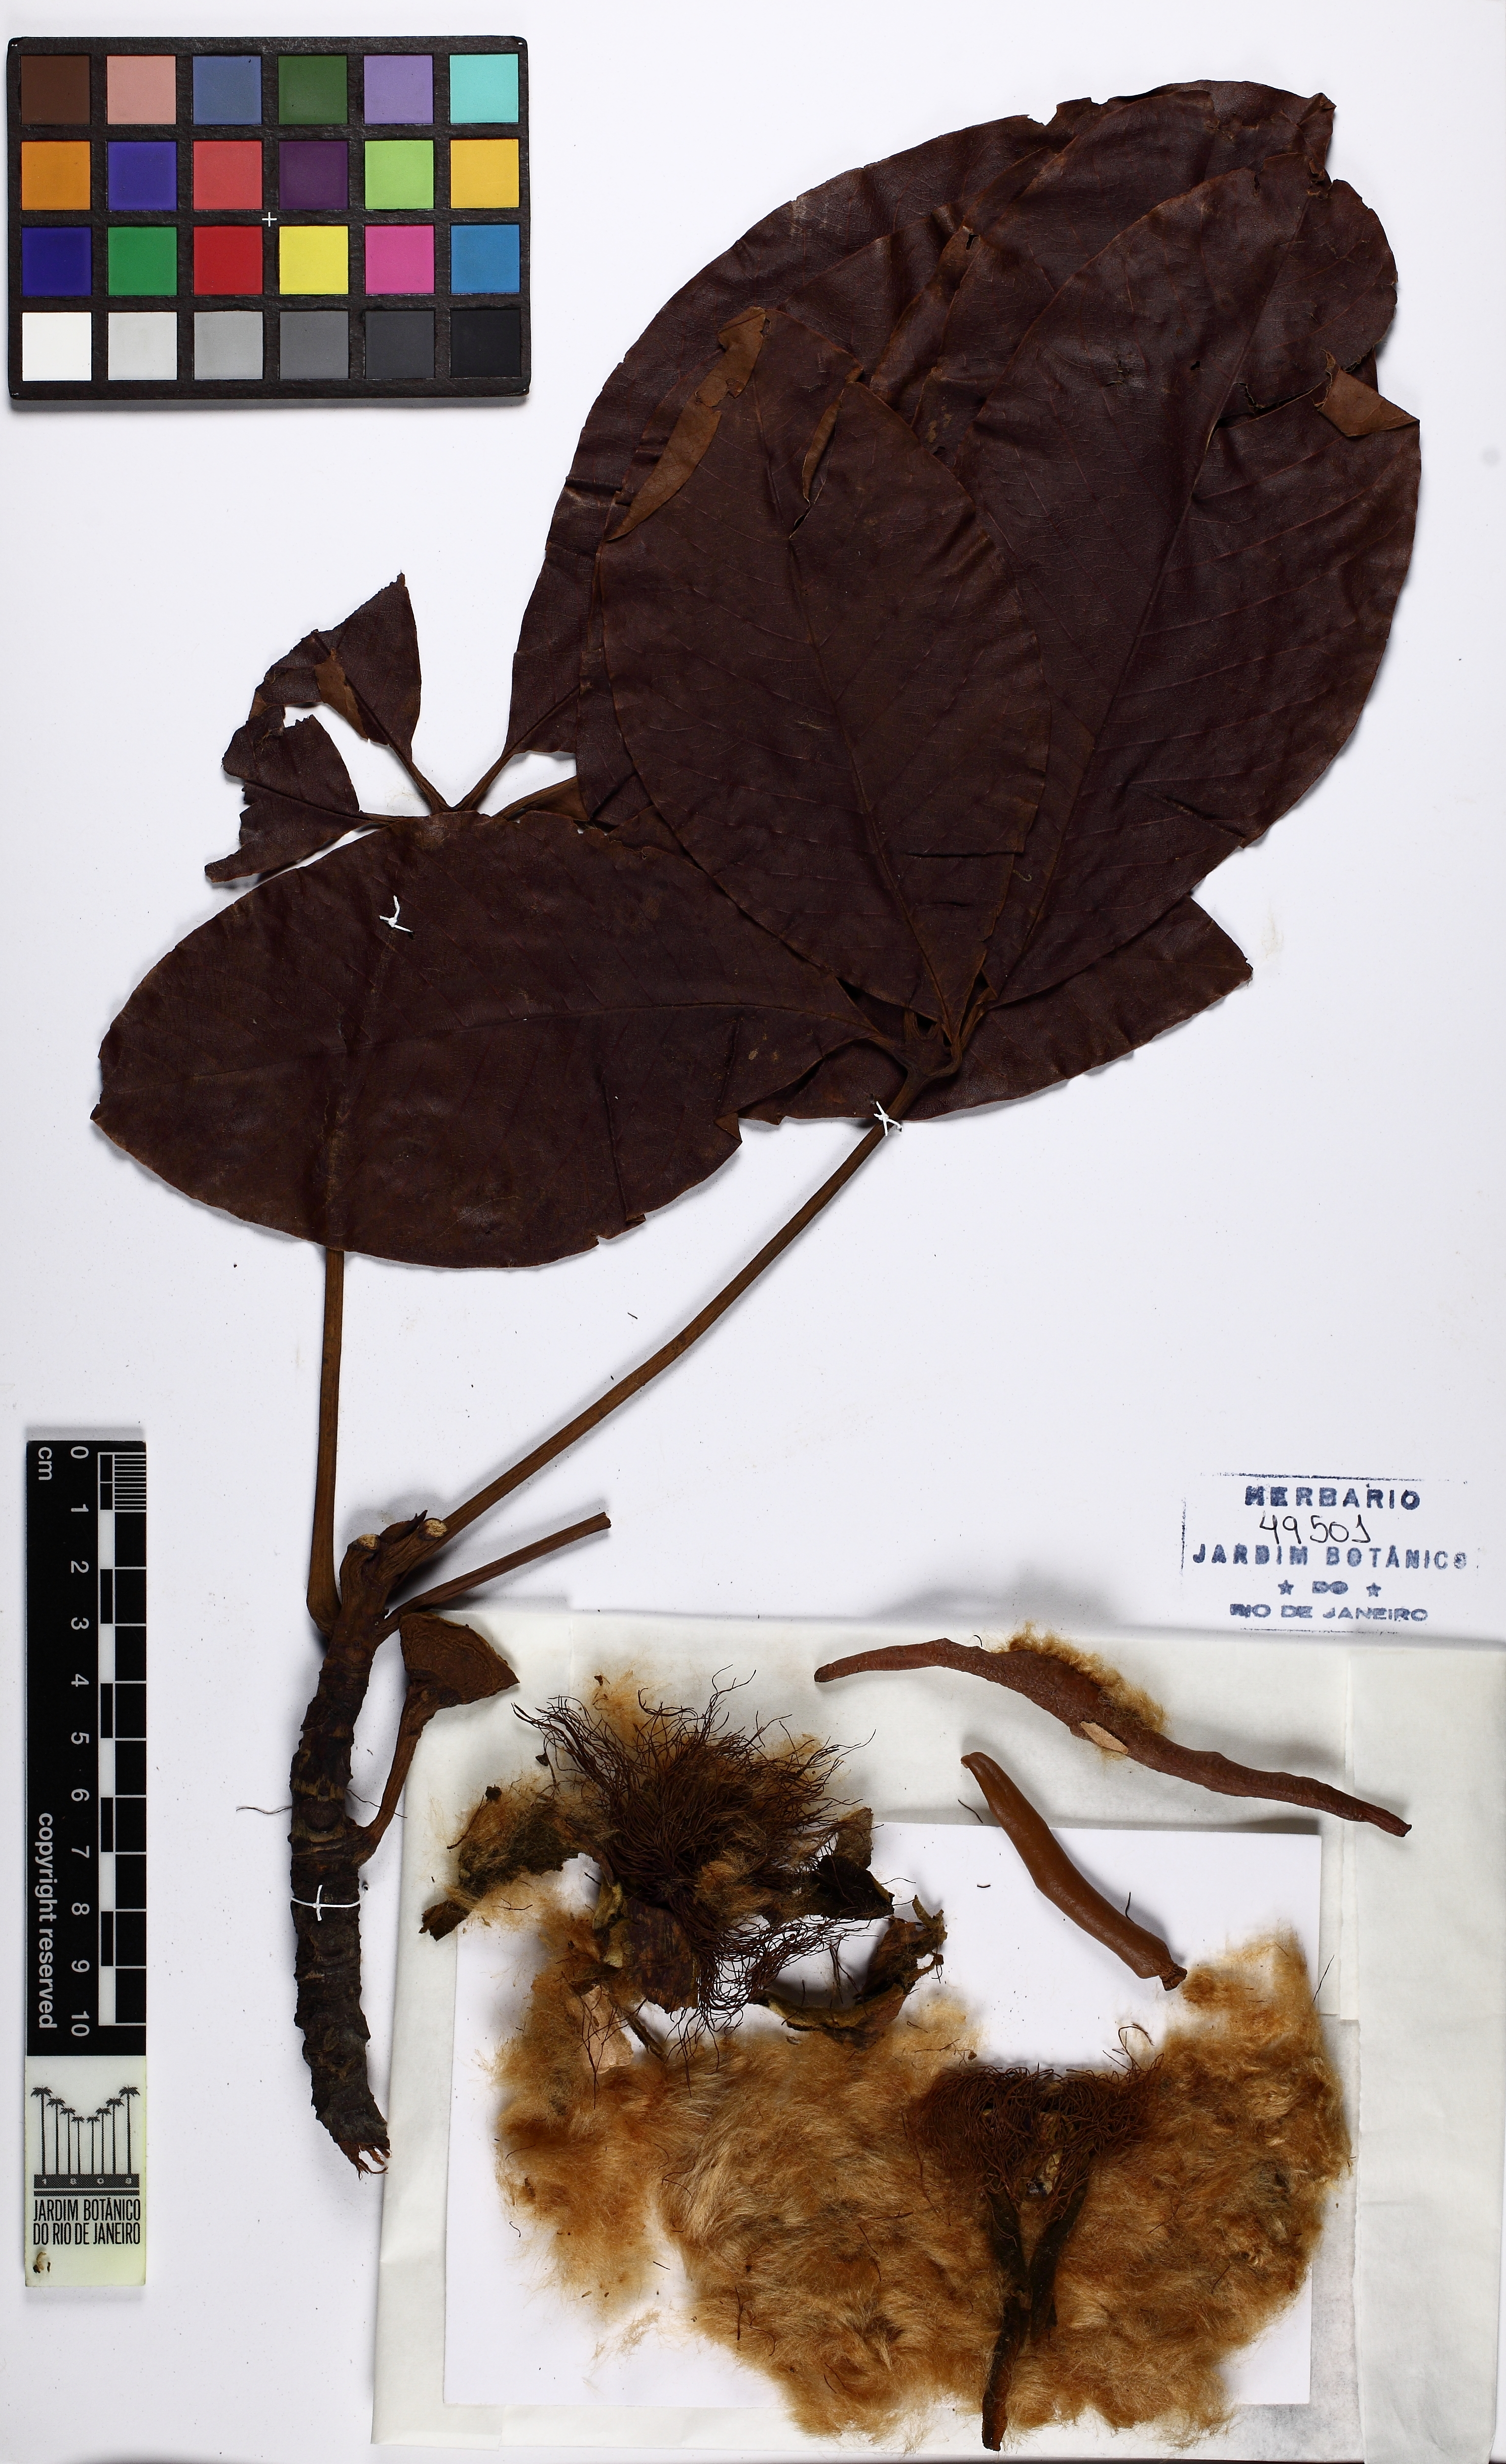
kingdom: Plantae
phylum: Tracheophyta
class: Magnoliopsida
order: Malvales
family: Malvaceae
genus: Pseudobombax
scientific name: Pseudobombax grandiflorum
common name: Brazilian shaving-brush-tree
